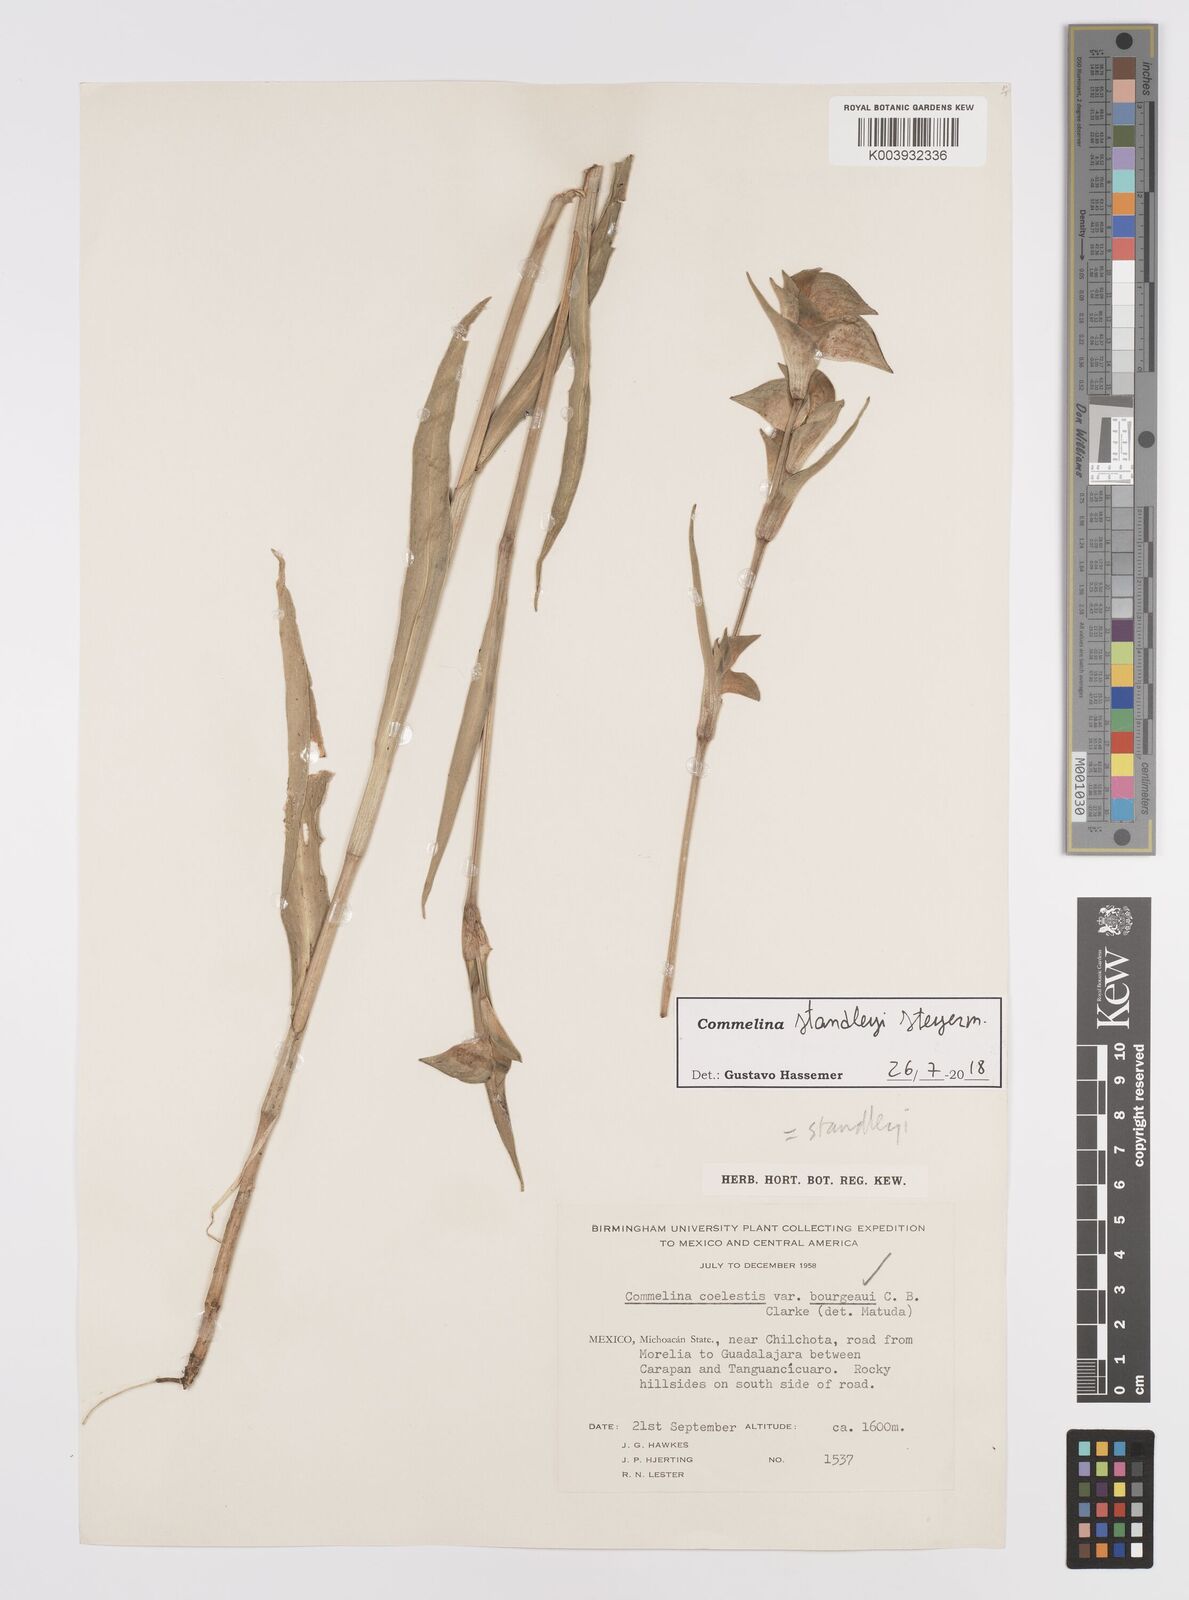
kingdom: Plantae
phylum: Tracheophyta
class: Liliopsida
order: Commelinales
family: Commelinaceae
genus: Commelina
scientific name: Commelina standleyi
